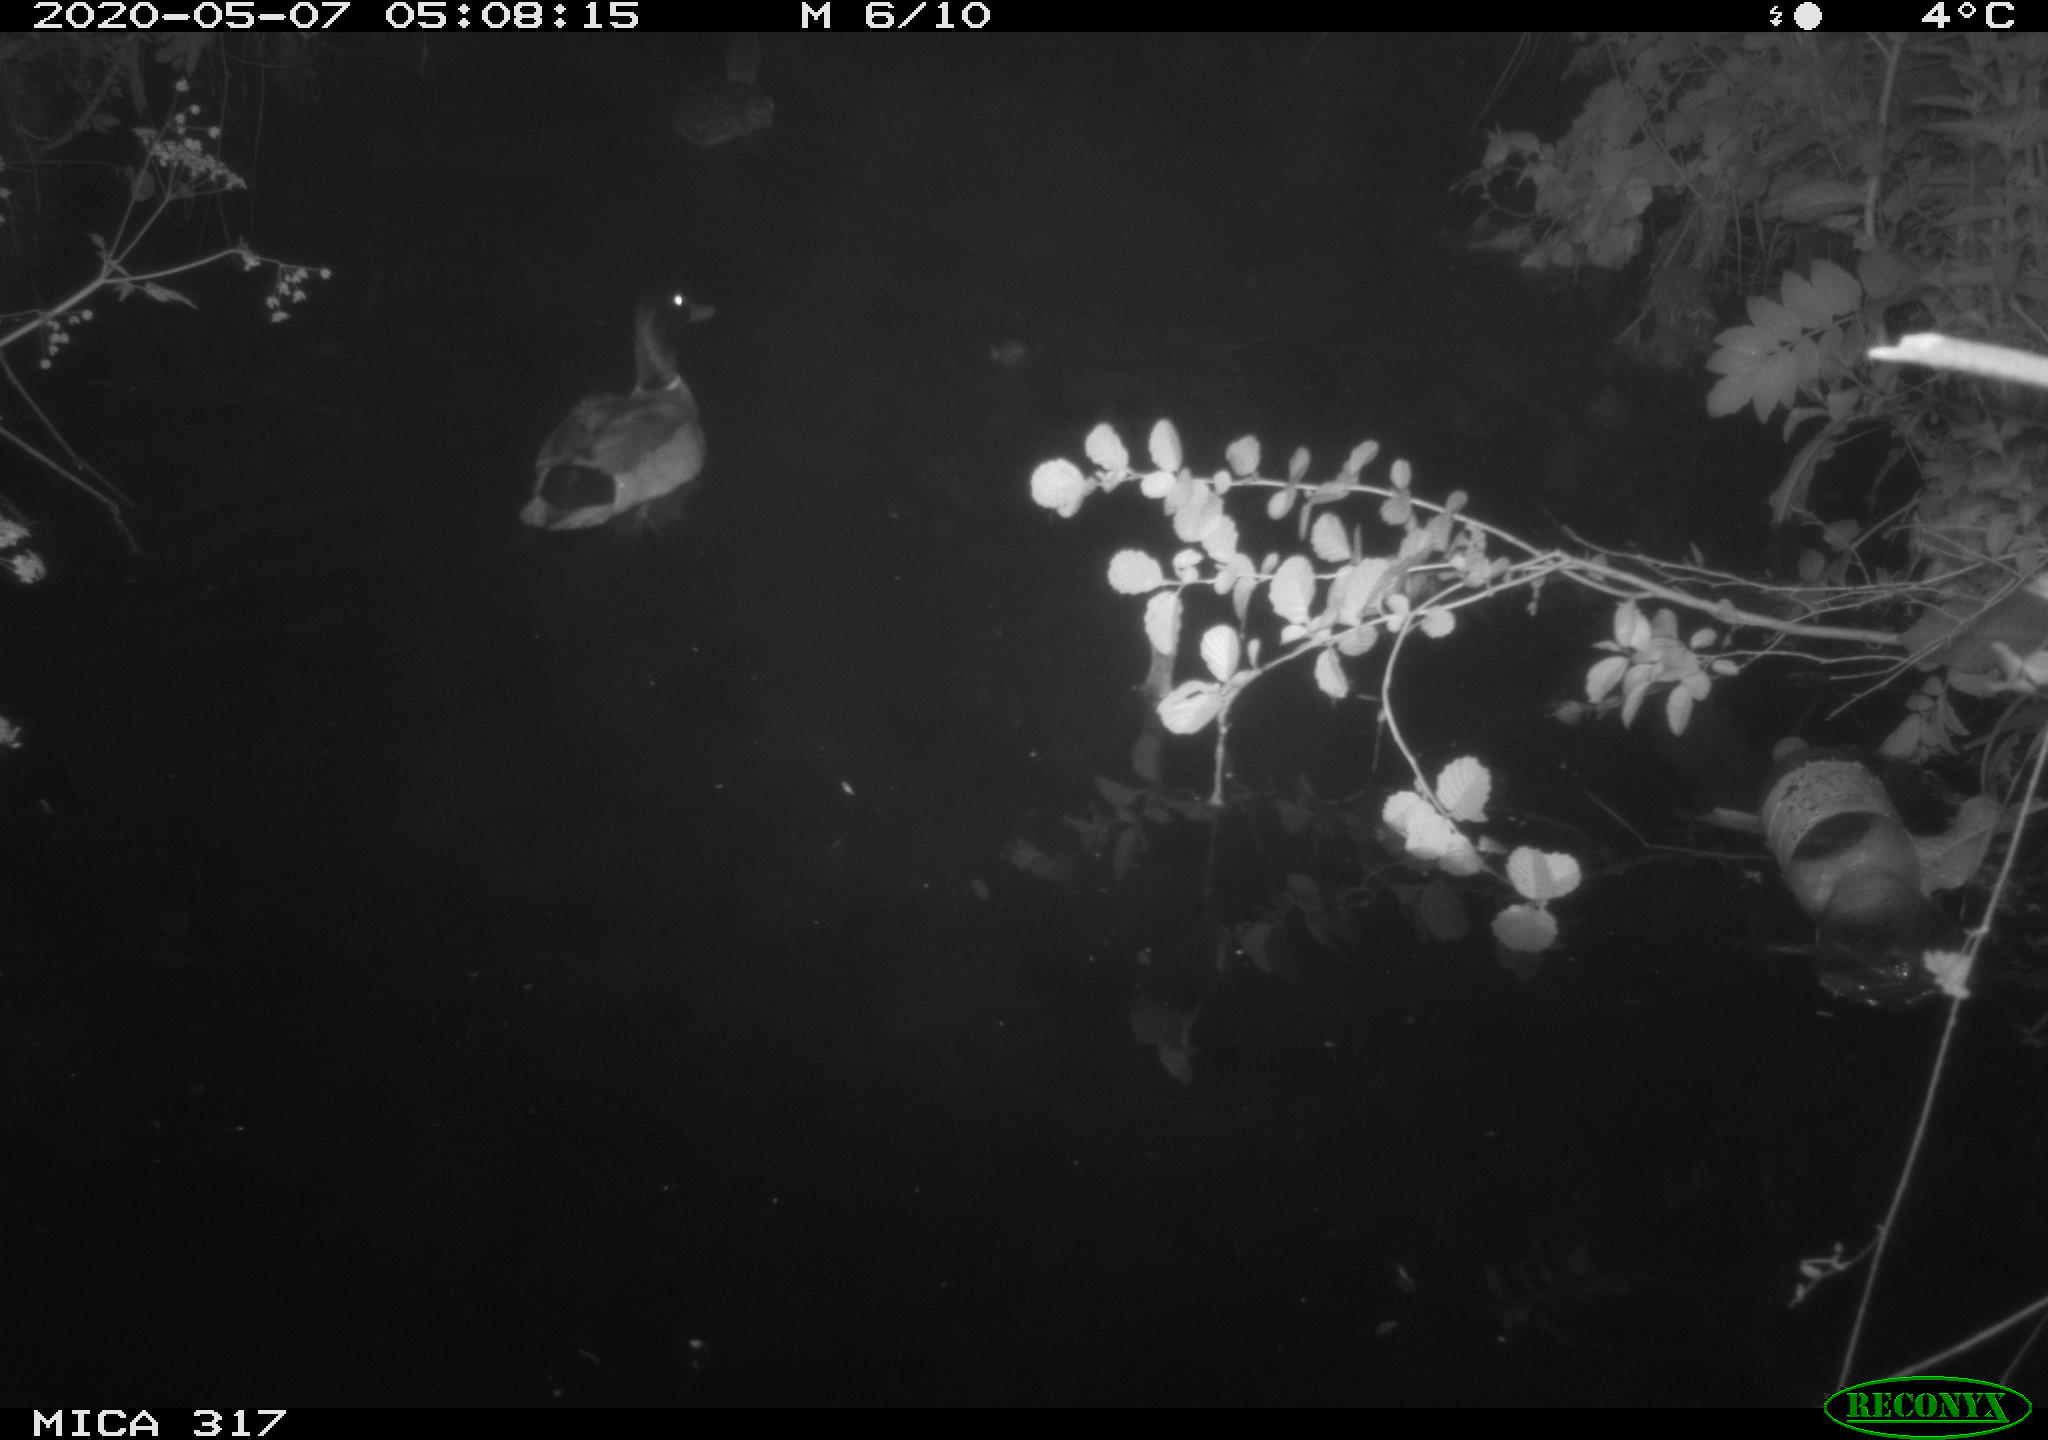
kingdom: Animalia
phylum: Chordata
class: Aves
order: Anseriformes
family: Anatidae
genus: Anas
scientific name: Anas platyrhynchos
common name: Mallard
